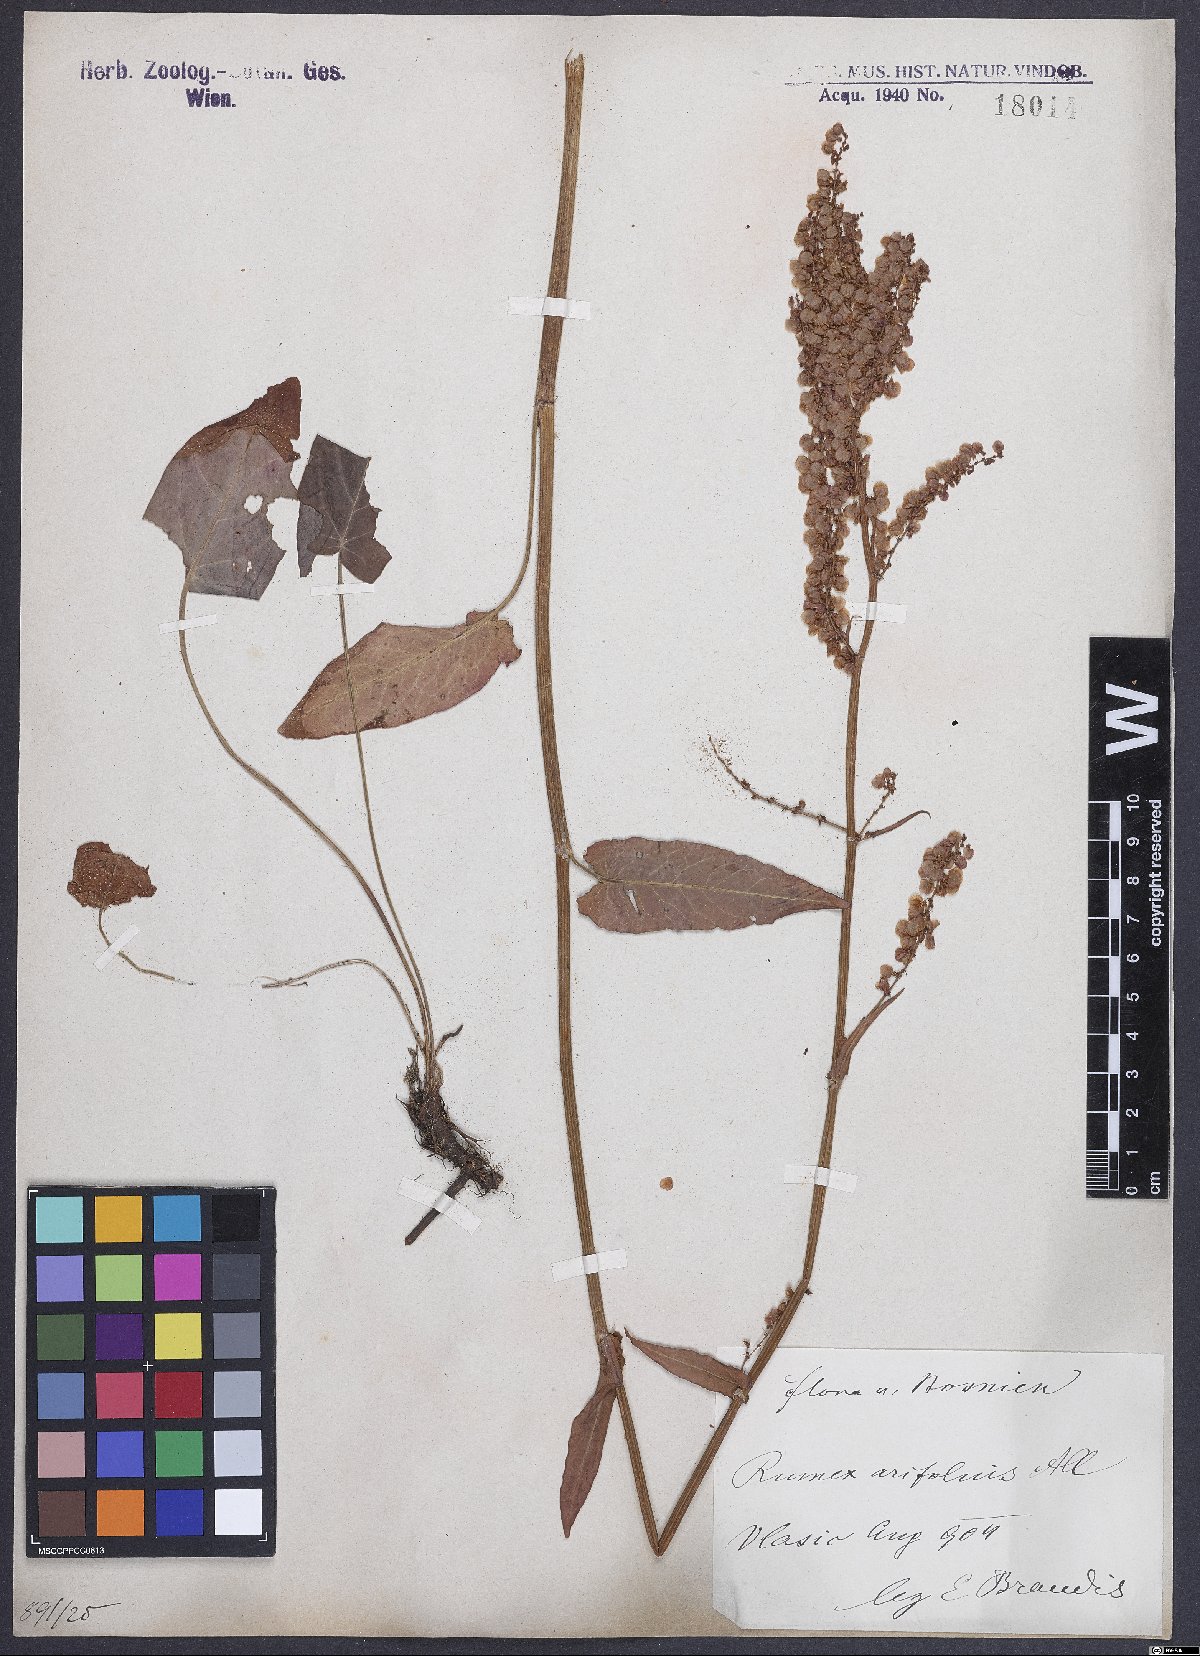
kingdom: Plantae
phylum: Tracheophyta
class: Magnoliopsida
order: Caryophyllales
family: Polygonaceae
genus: Rumex
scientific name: Rumex arifolius
